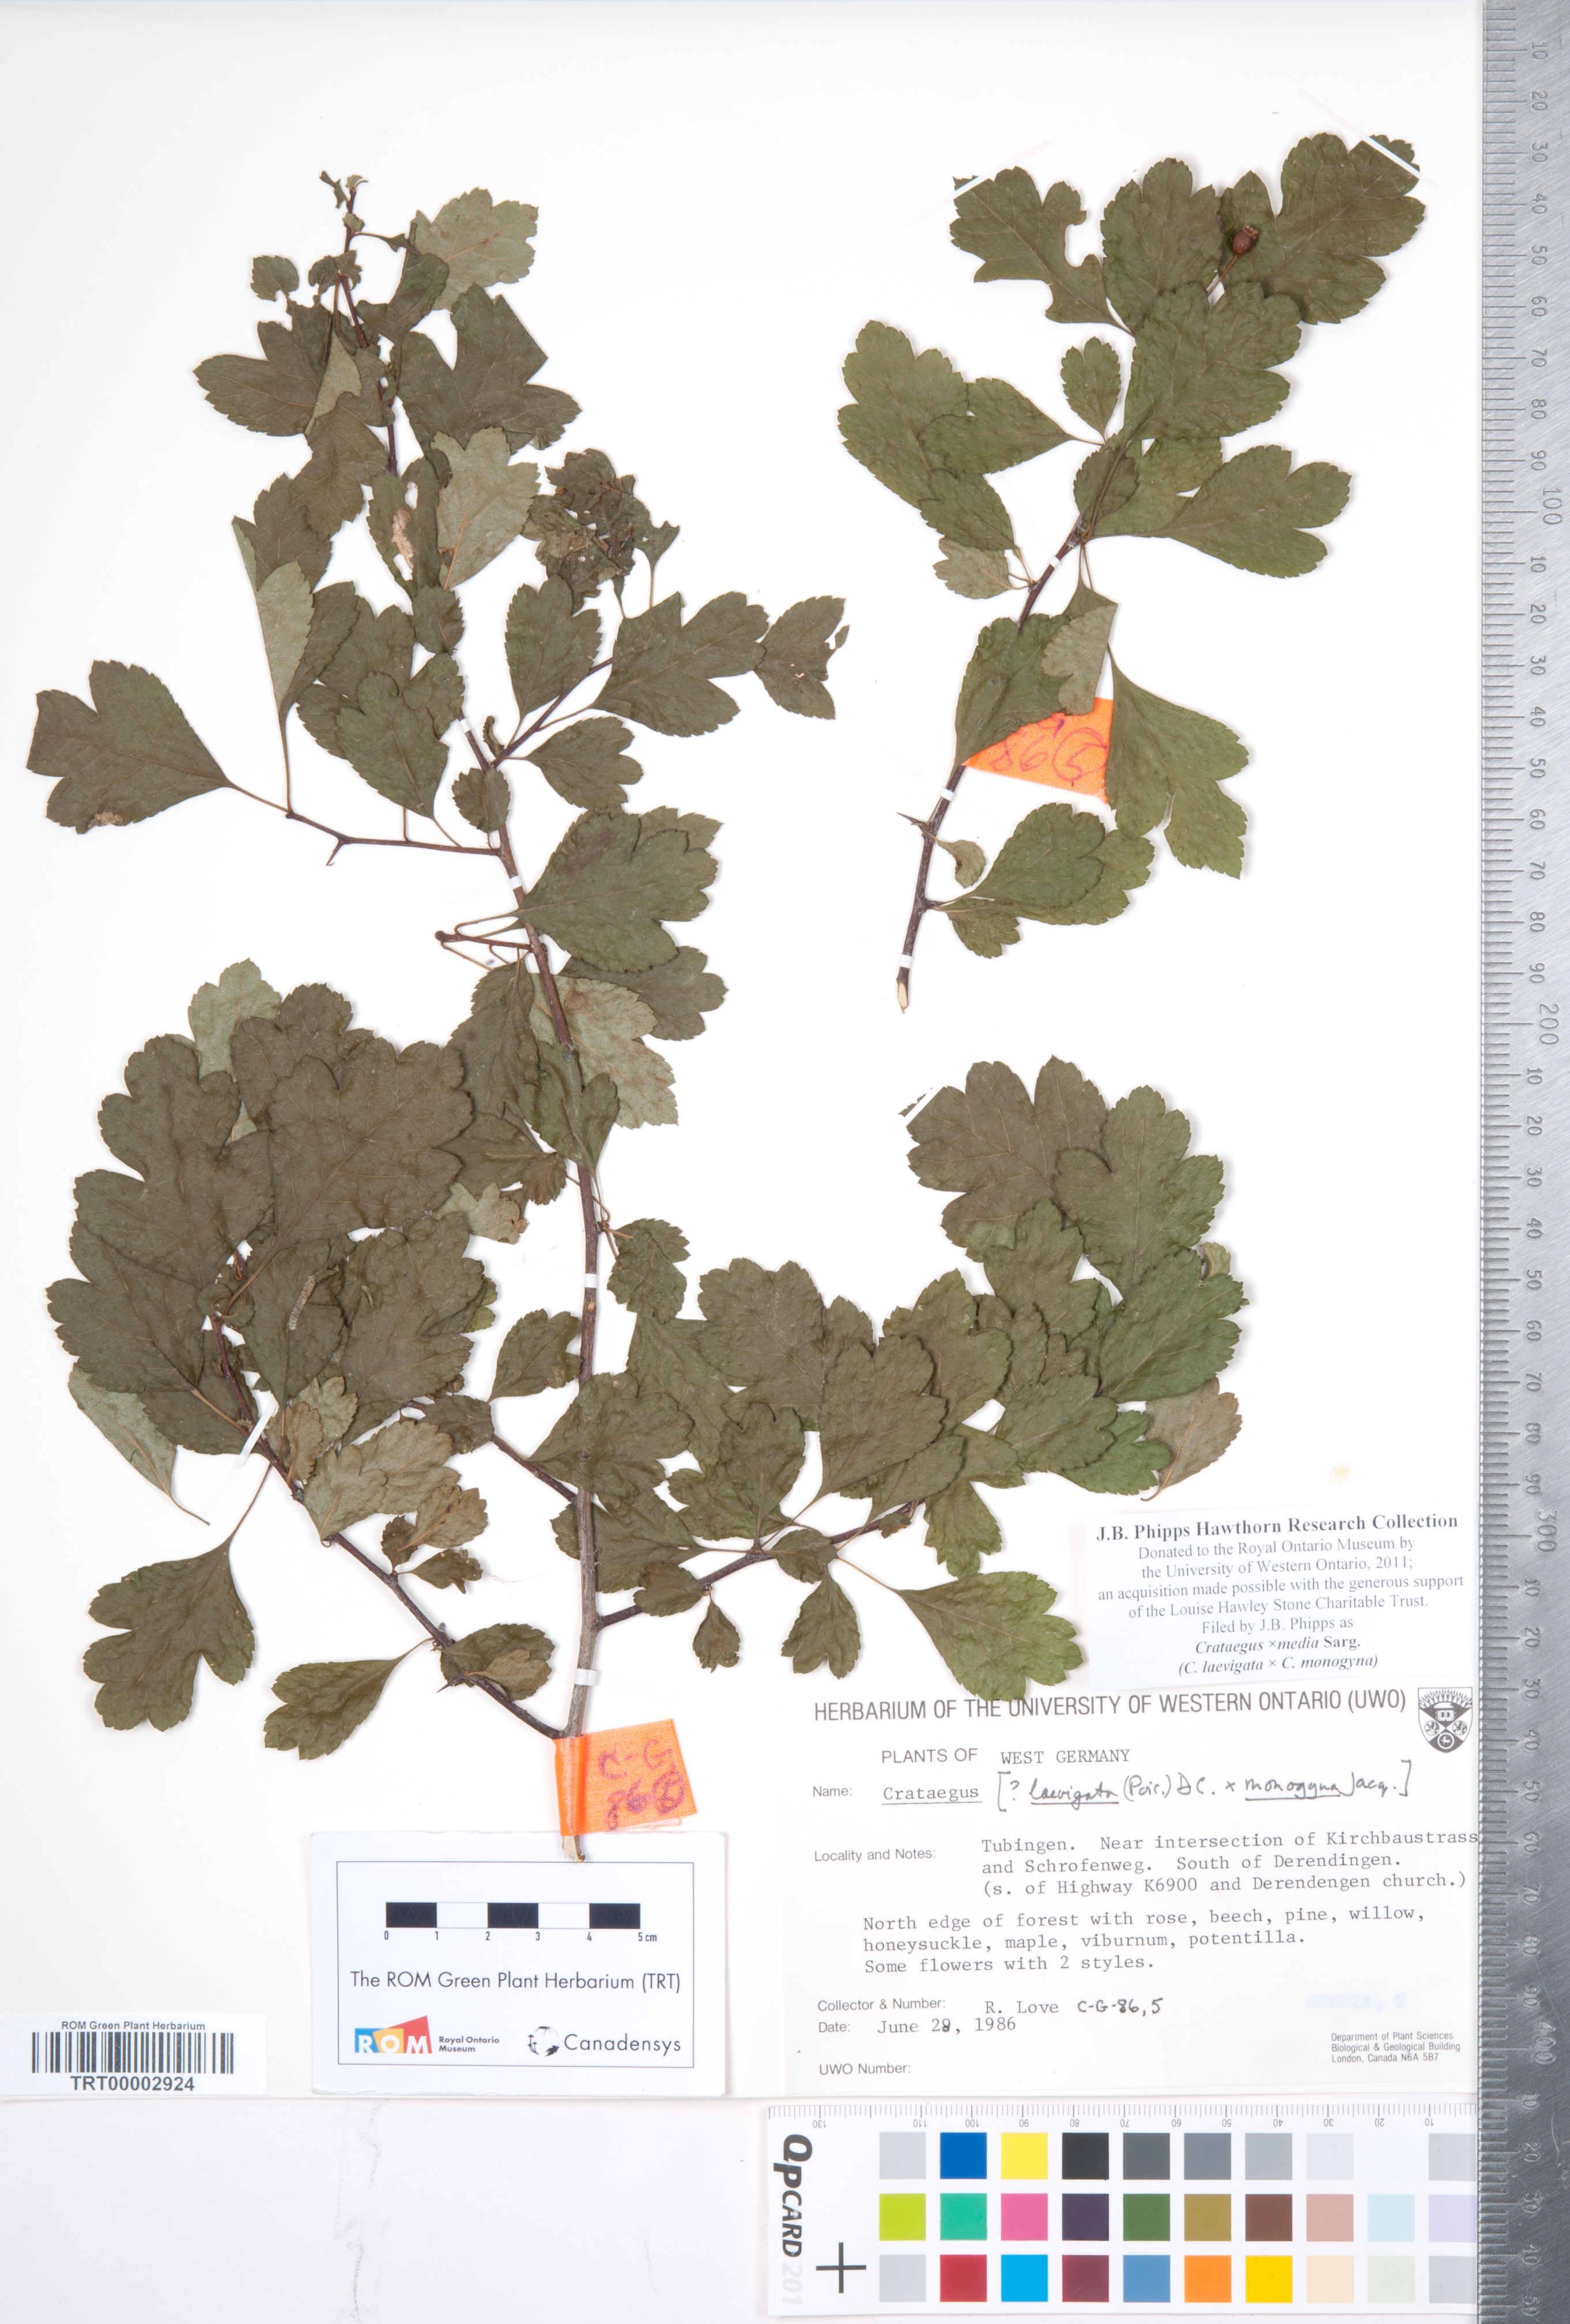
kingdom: Plantae
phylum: Tracheophyta
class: Magnoliopsida
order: Rosales
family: Rosaceae
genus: Crataegus
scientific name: Crataegus media
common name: Intermediate hawthorn
